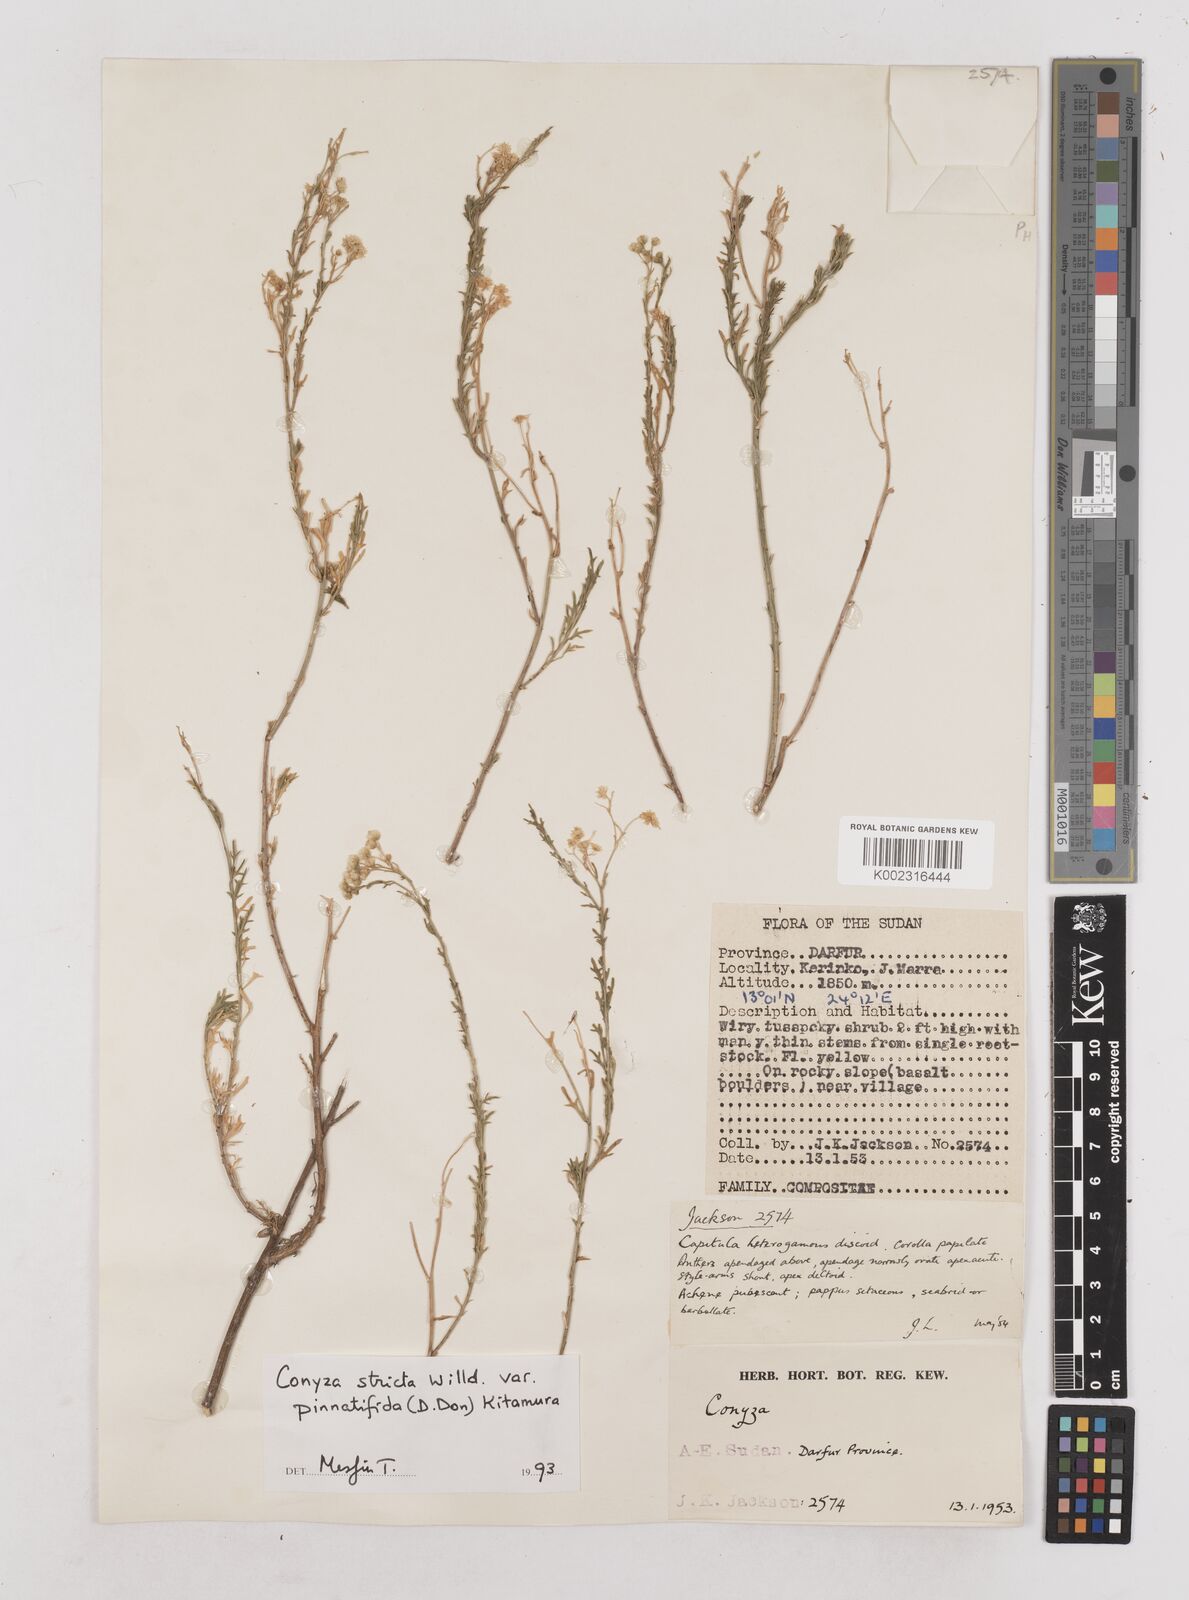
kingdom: Plantae
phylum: Tracheophyta
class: Magnoliopsida
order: Asterales
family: Asteraceae
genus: Nidorella
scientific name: Nidorella triloba
